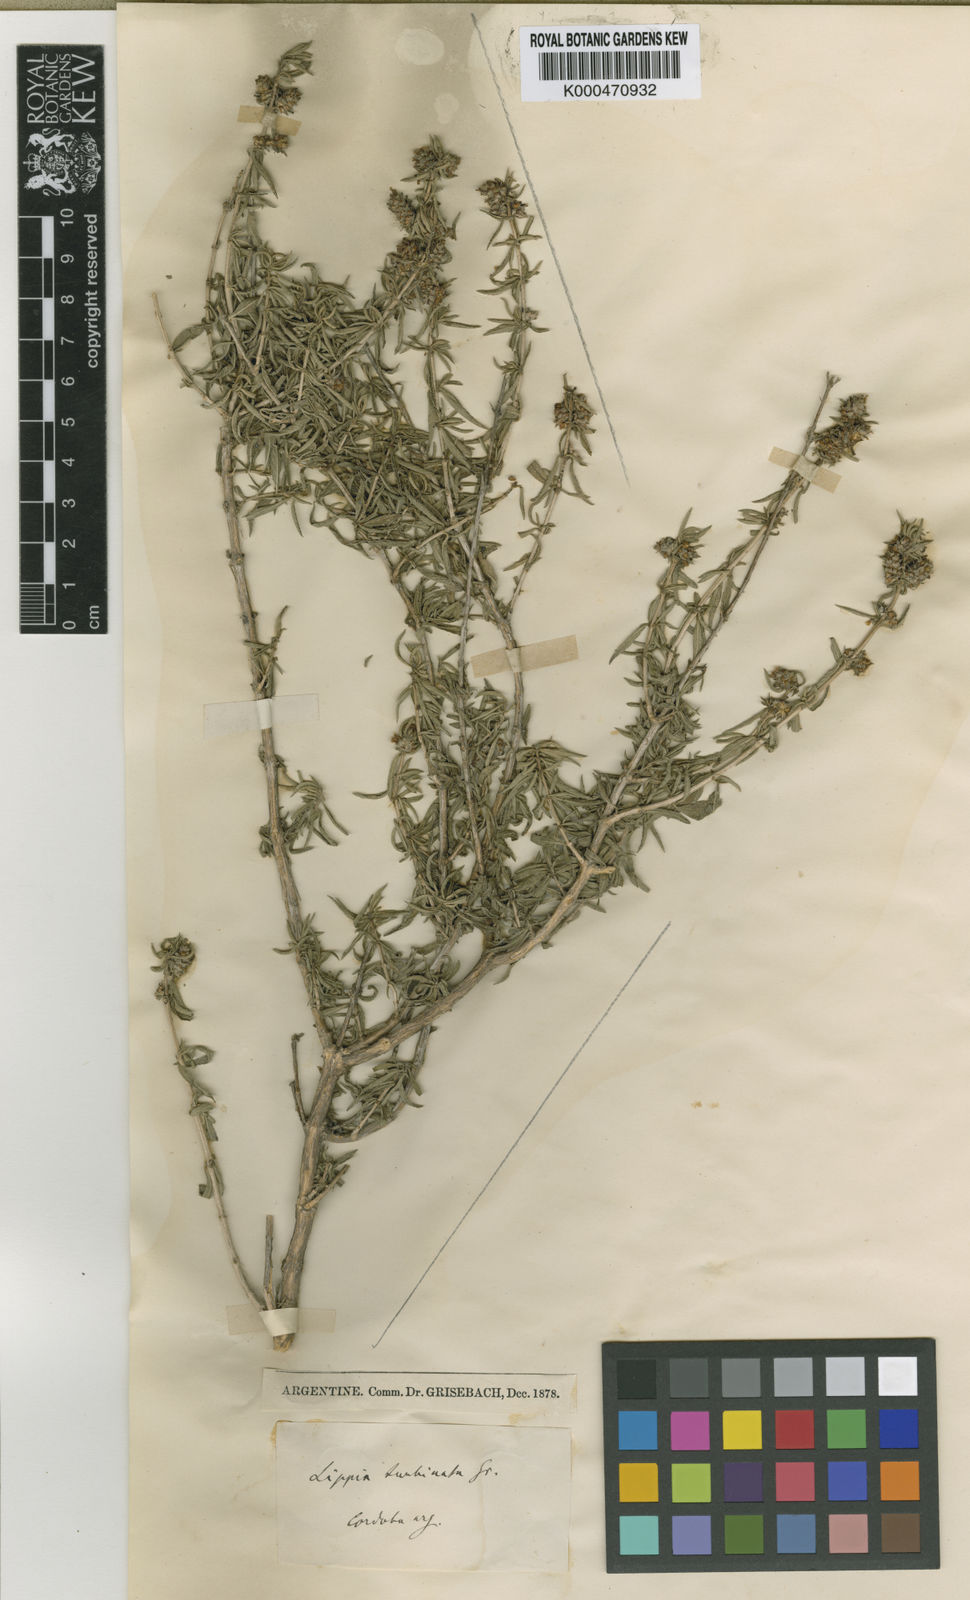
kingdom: Plantae
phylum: Tracheophyta
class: Magnoliopsida
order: Lamiales
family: Verbenaceae
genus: Lippia
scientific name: Lippia turbinata
